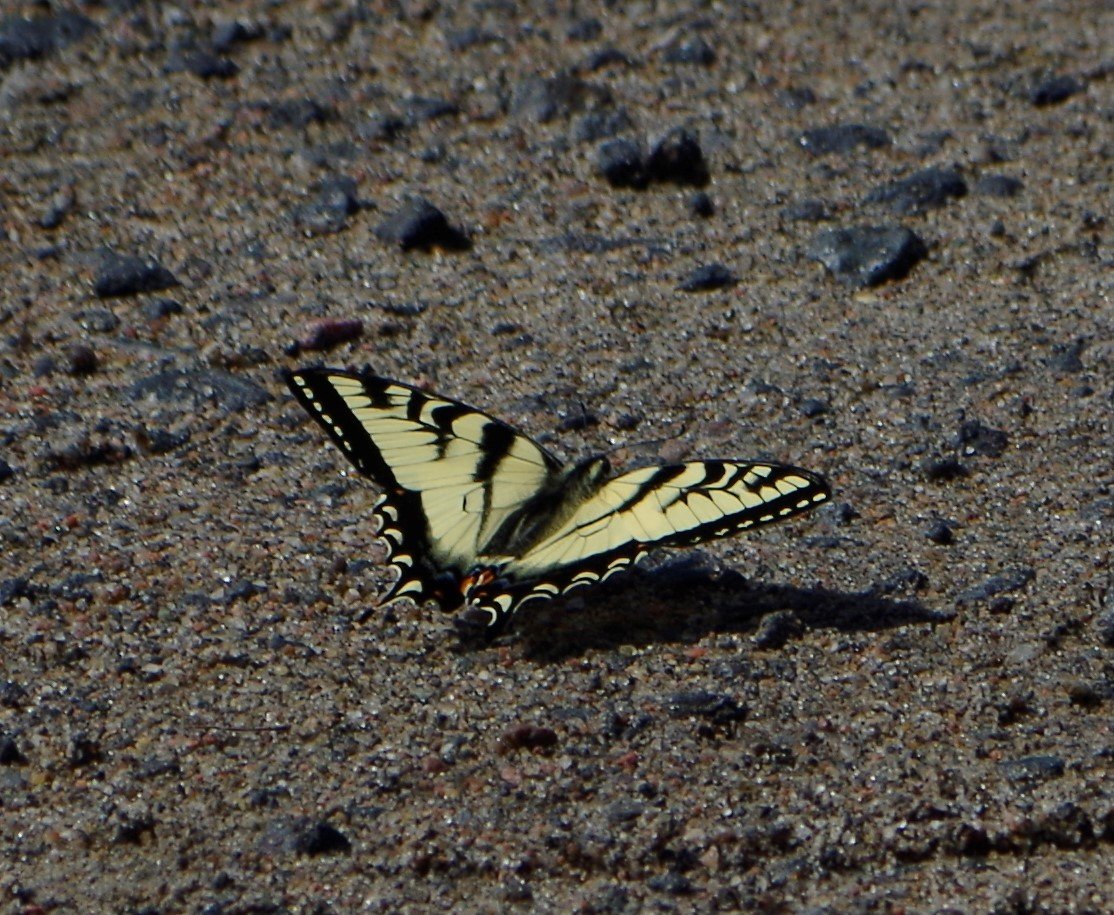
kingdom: Animalia
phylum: Arthropoda
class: Insecta
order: Lepidoptera
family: Papilionidae
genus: Pterourus
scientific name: Pterourus glaucus
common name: Eastern Tiger Swallowtail
